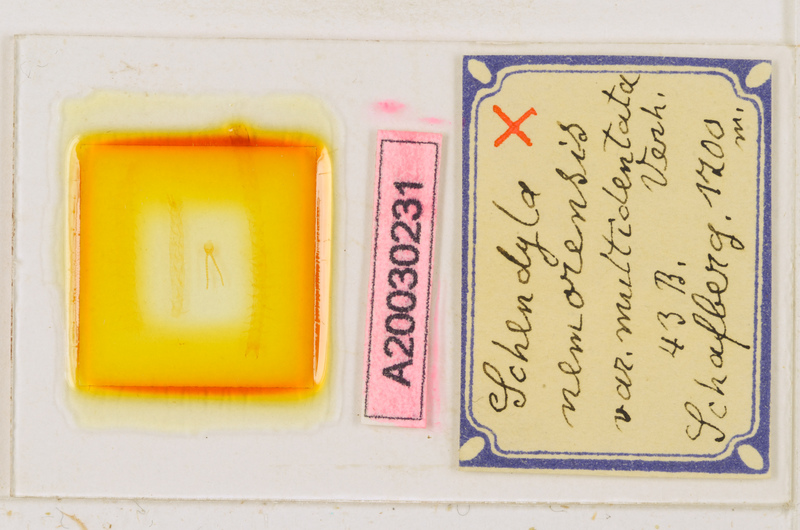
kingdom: Animalia
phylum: Arthropoda
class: Chilopoda
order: Geophilomorpha
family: Schendylidae
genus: Schendyla
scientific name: Schendyla montana
